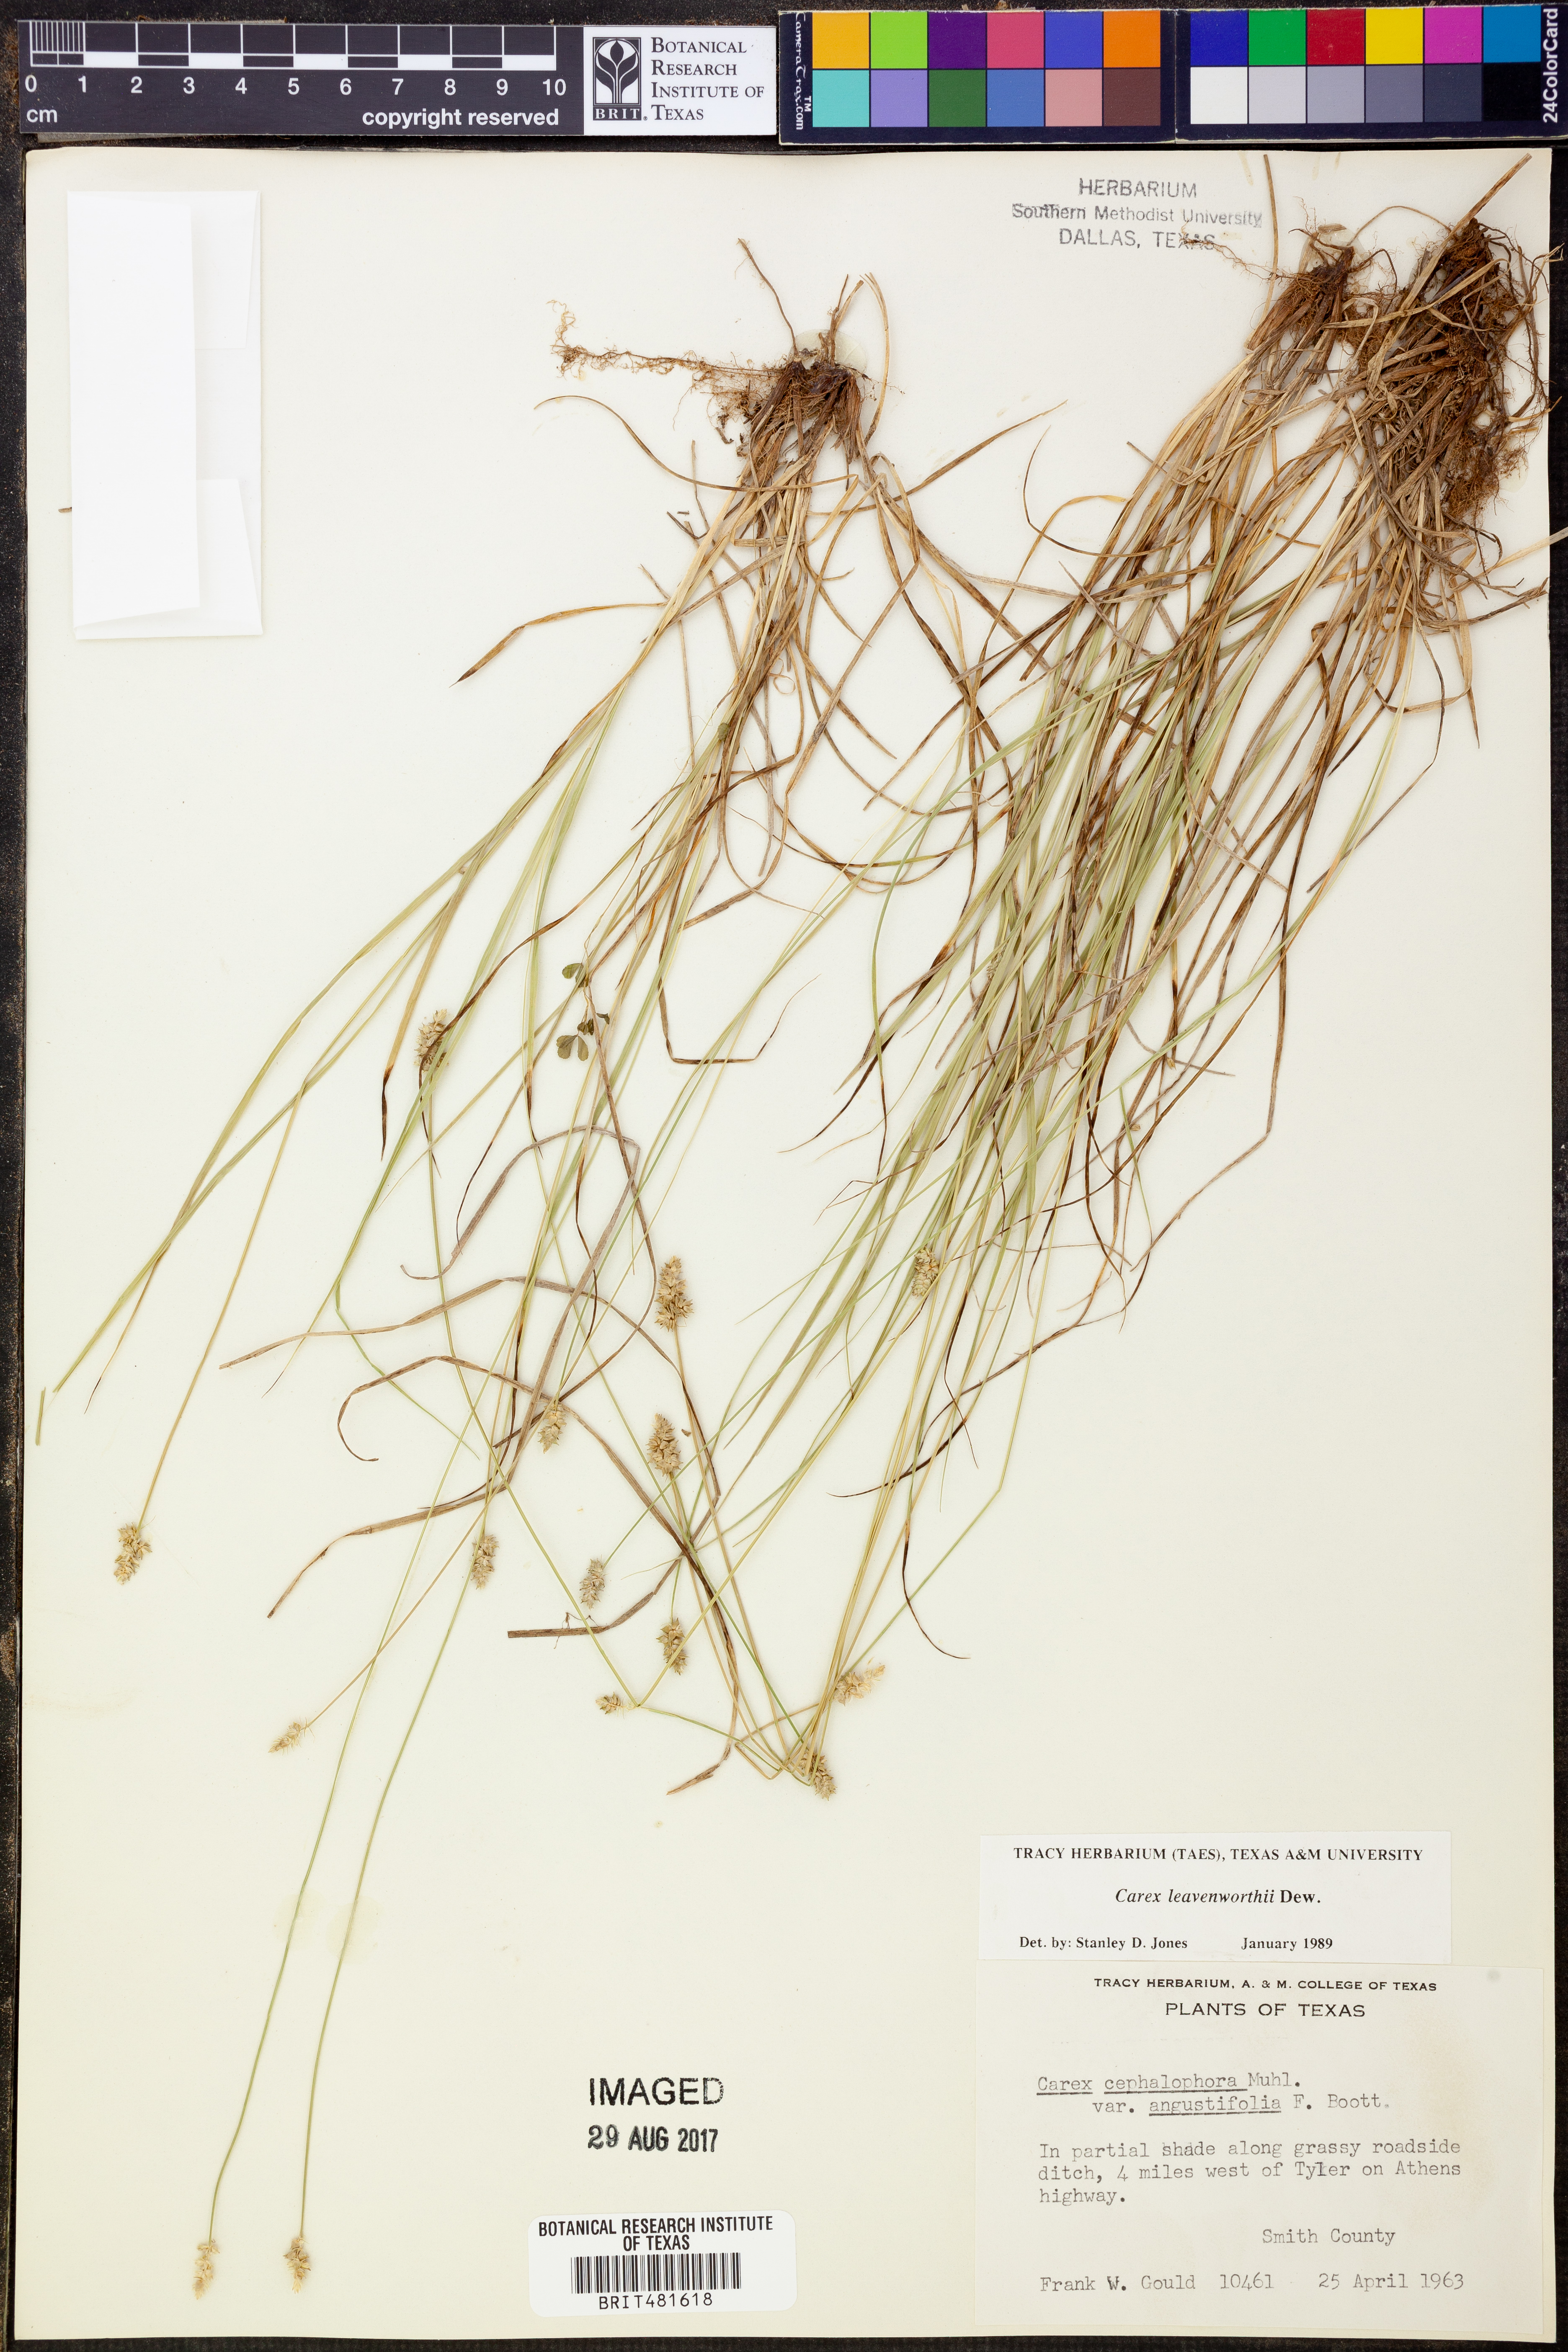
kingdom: Plantae
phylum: Tracheophyta
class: Liliopsida
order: Poales
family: Cyperaceae
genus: Carex
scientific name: Carex leavenworthii
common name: Leavenworth's bracted sedge
